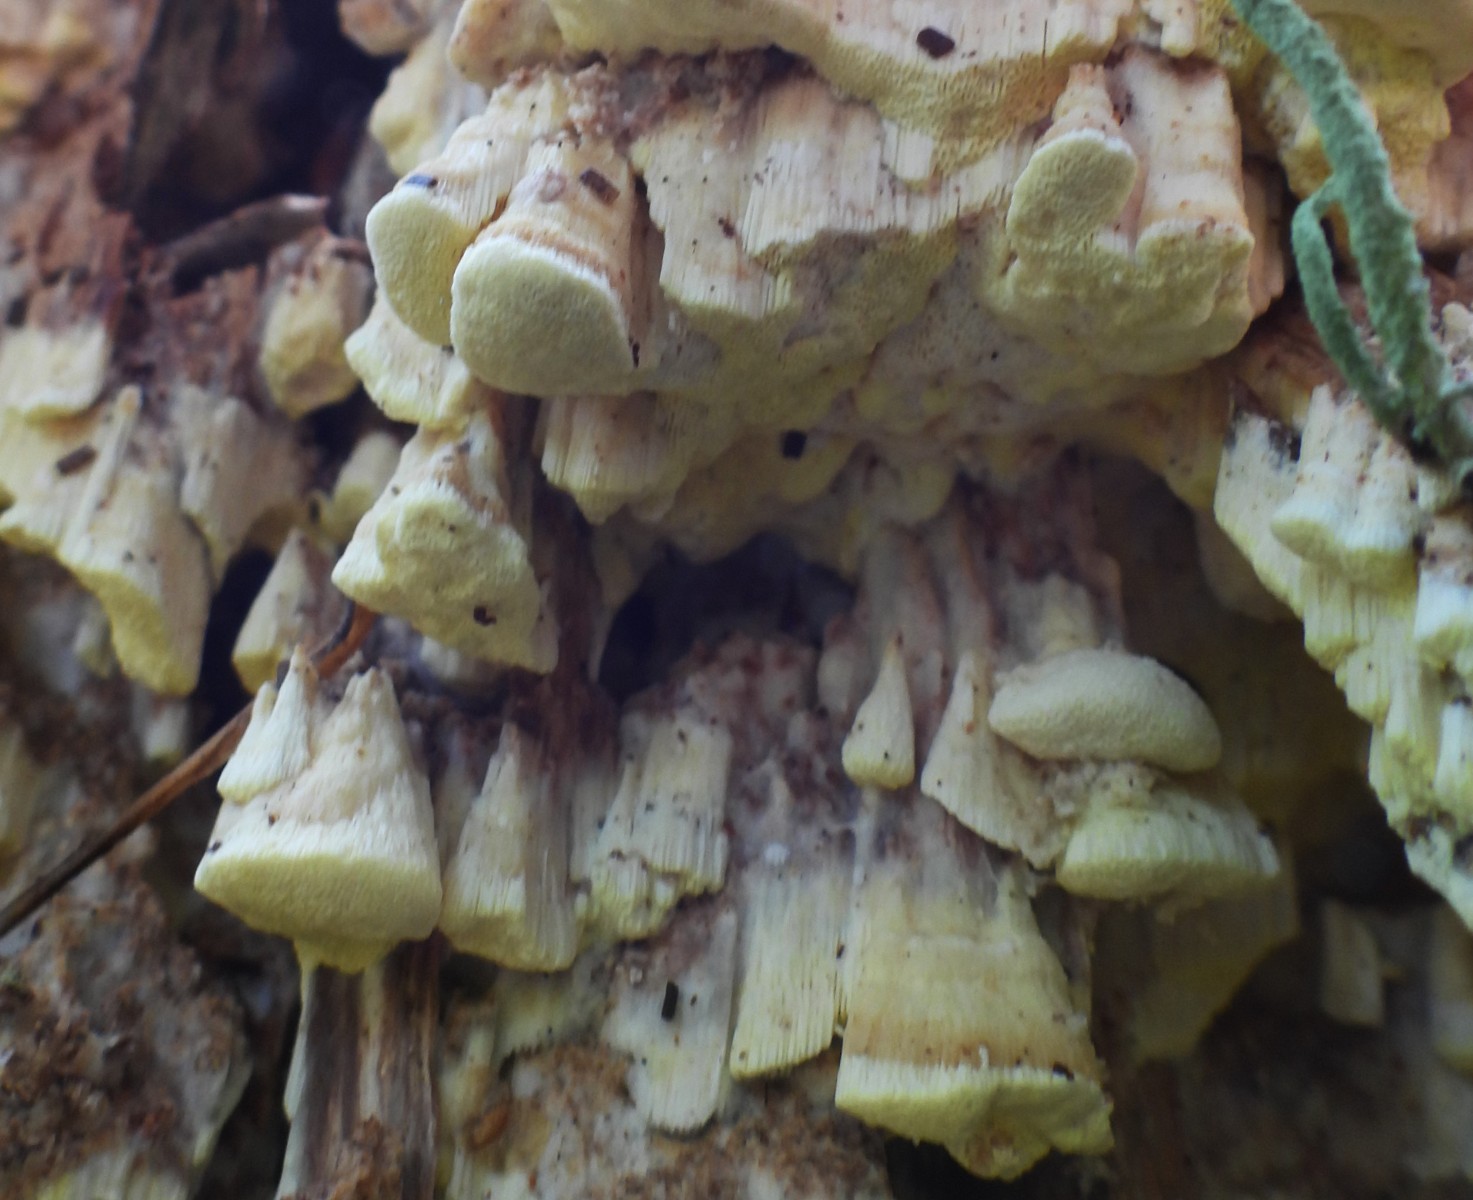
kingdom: Fungi
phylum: Basidiomycota
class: Agaricomycetes
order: Polyporales
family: Fomitopsidaceae
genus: Daedalea
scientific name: Daedalea xantha
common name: gul sejporesvamp
